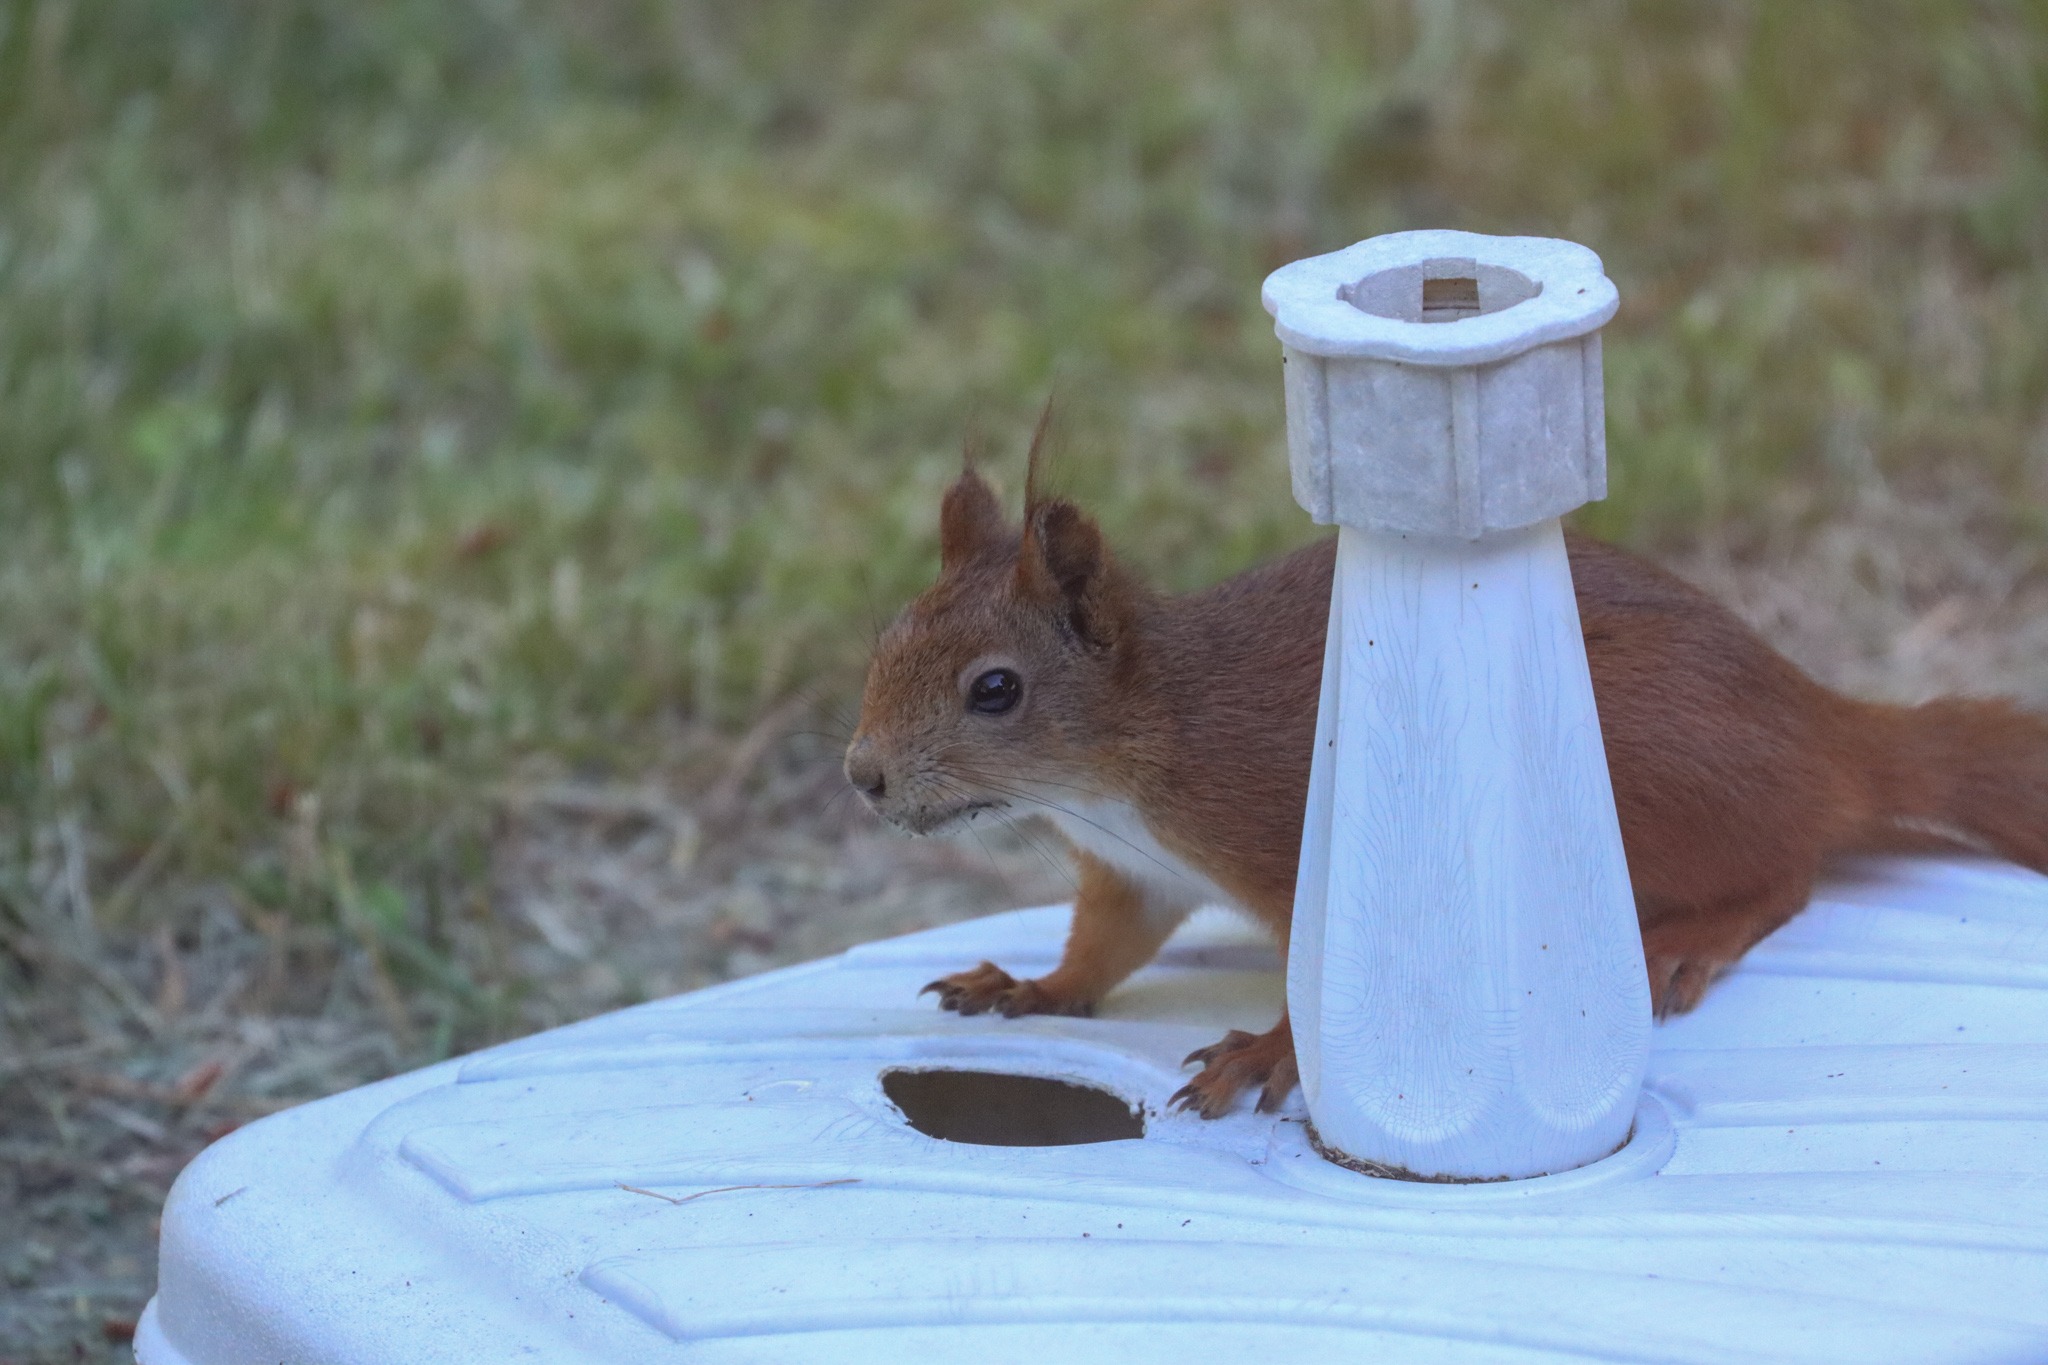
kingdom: Animalia
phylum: Chordata
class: Mammalia
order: Rodentia
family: Sciuridae
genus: Sciurus
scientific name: Sciurus vulgaris
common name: Egern
